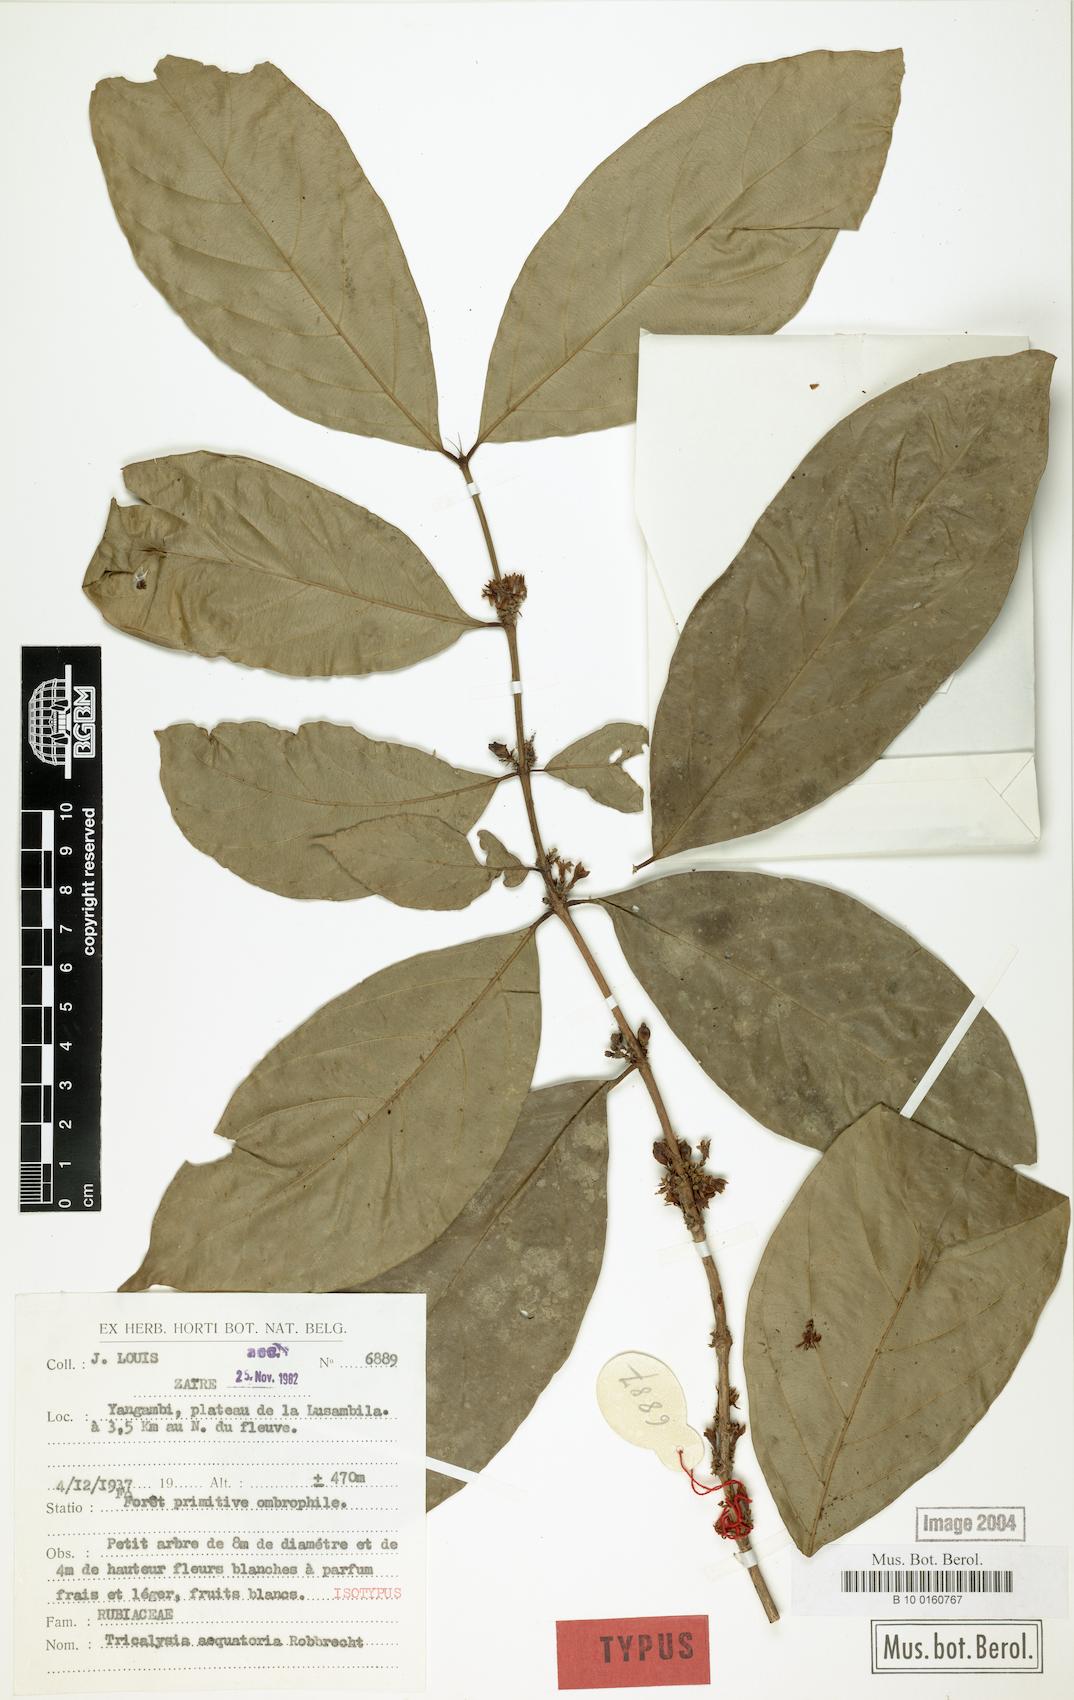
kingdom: Plantae
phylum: Tracheophyta
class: Magnoliopsida
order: Gentianales
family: Rubiaceae
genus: Empogona
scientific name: Empogona aequatoria
